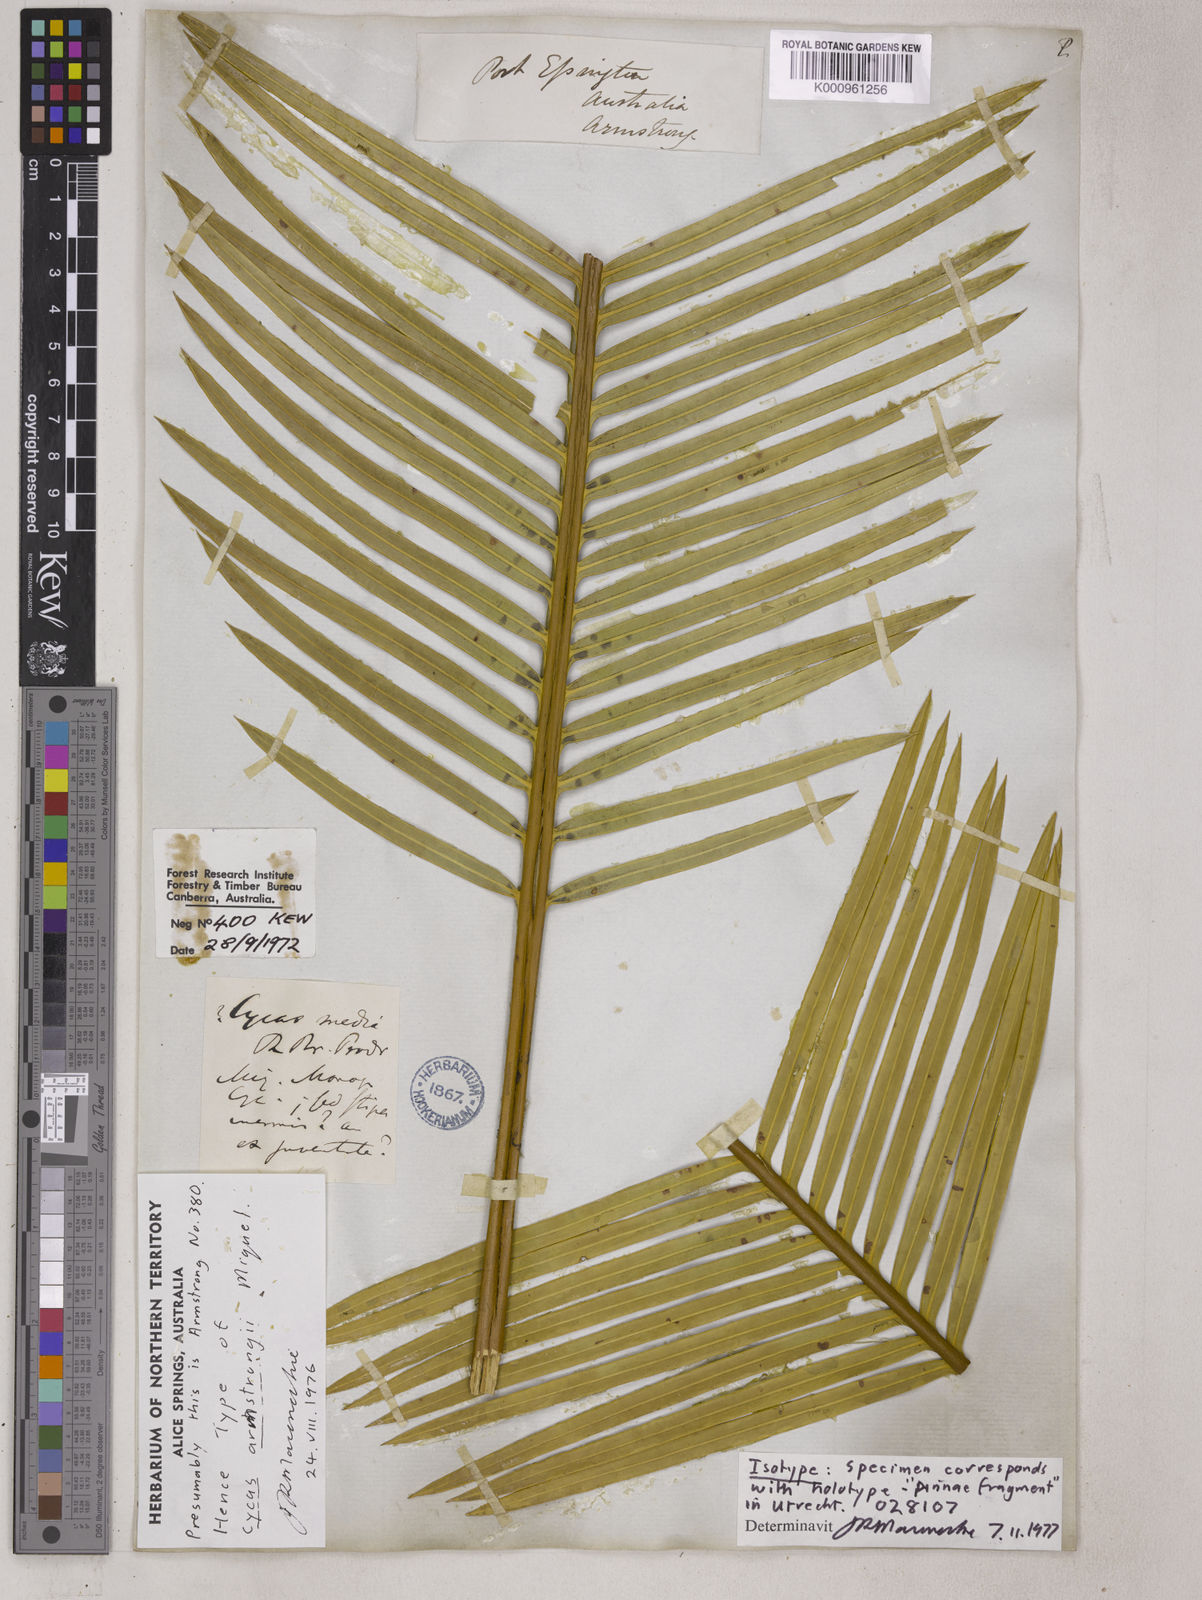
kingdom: Plantae
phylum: Tracheophyta
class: Cycadopsida
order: Cycadales
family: Cycadaceae
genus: Cycas
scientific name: Cycas armstrongii
